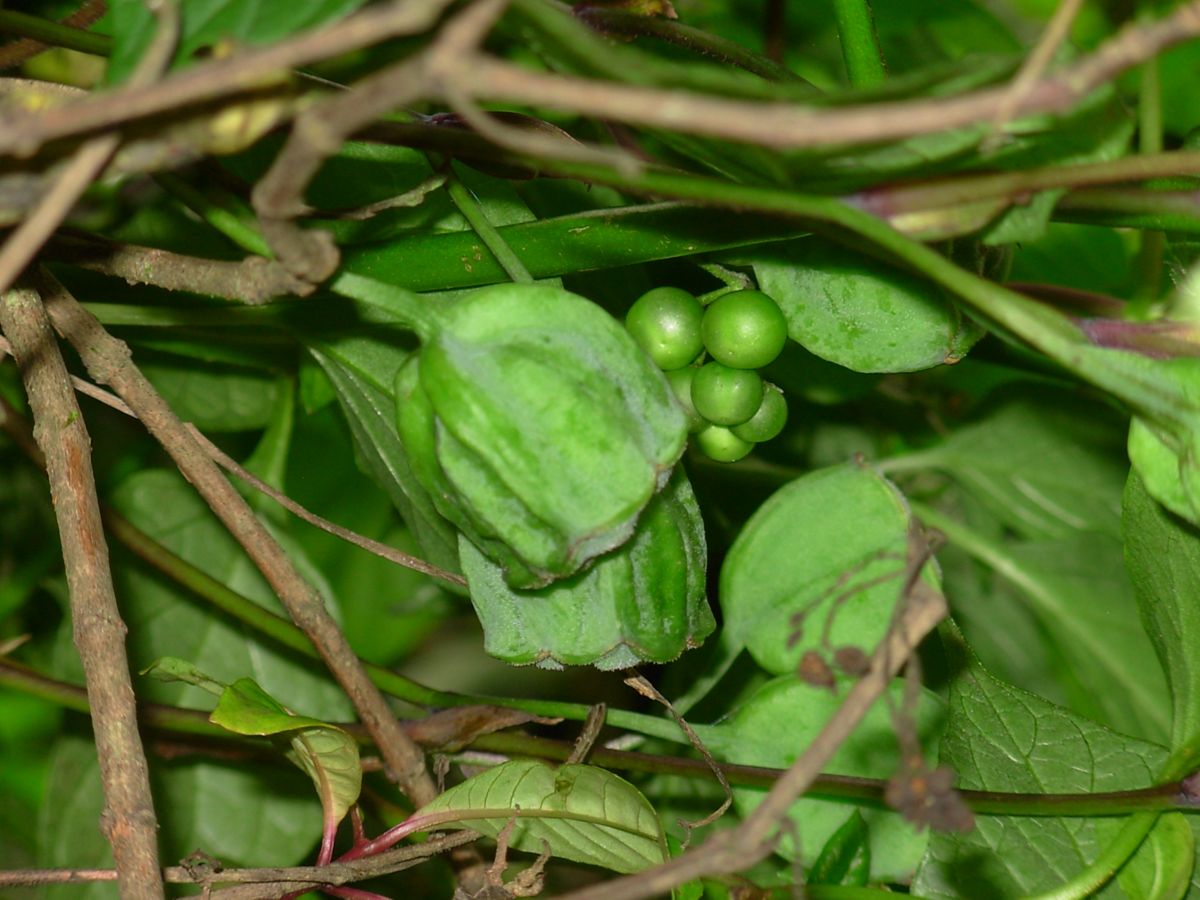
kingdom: Plantae
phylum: Tracheophyta
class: Liliopsida
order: Liliales
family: Alstroemeriaceae
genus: Bomarea
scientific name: Bomarea edulis
